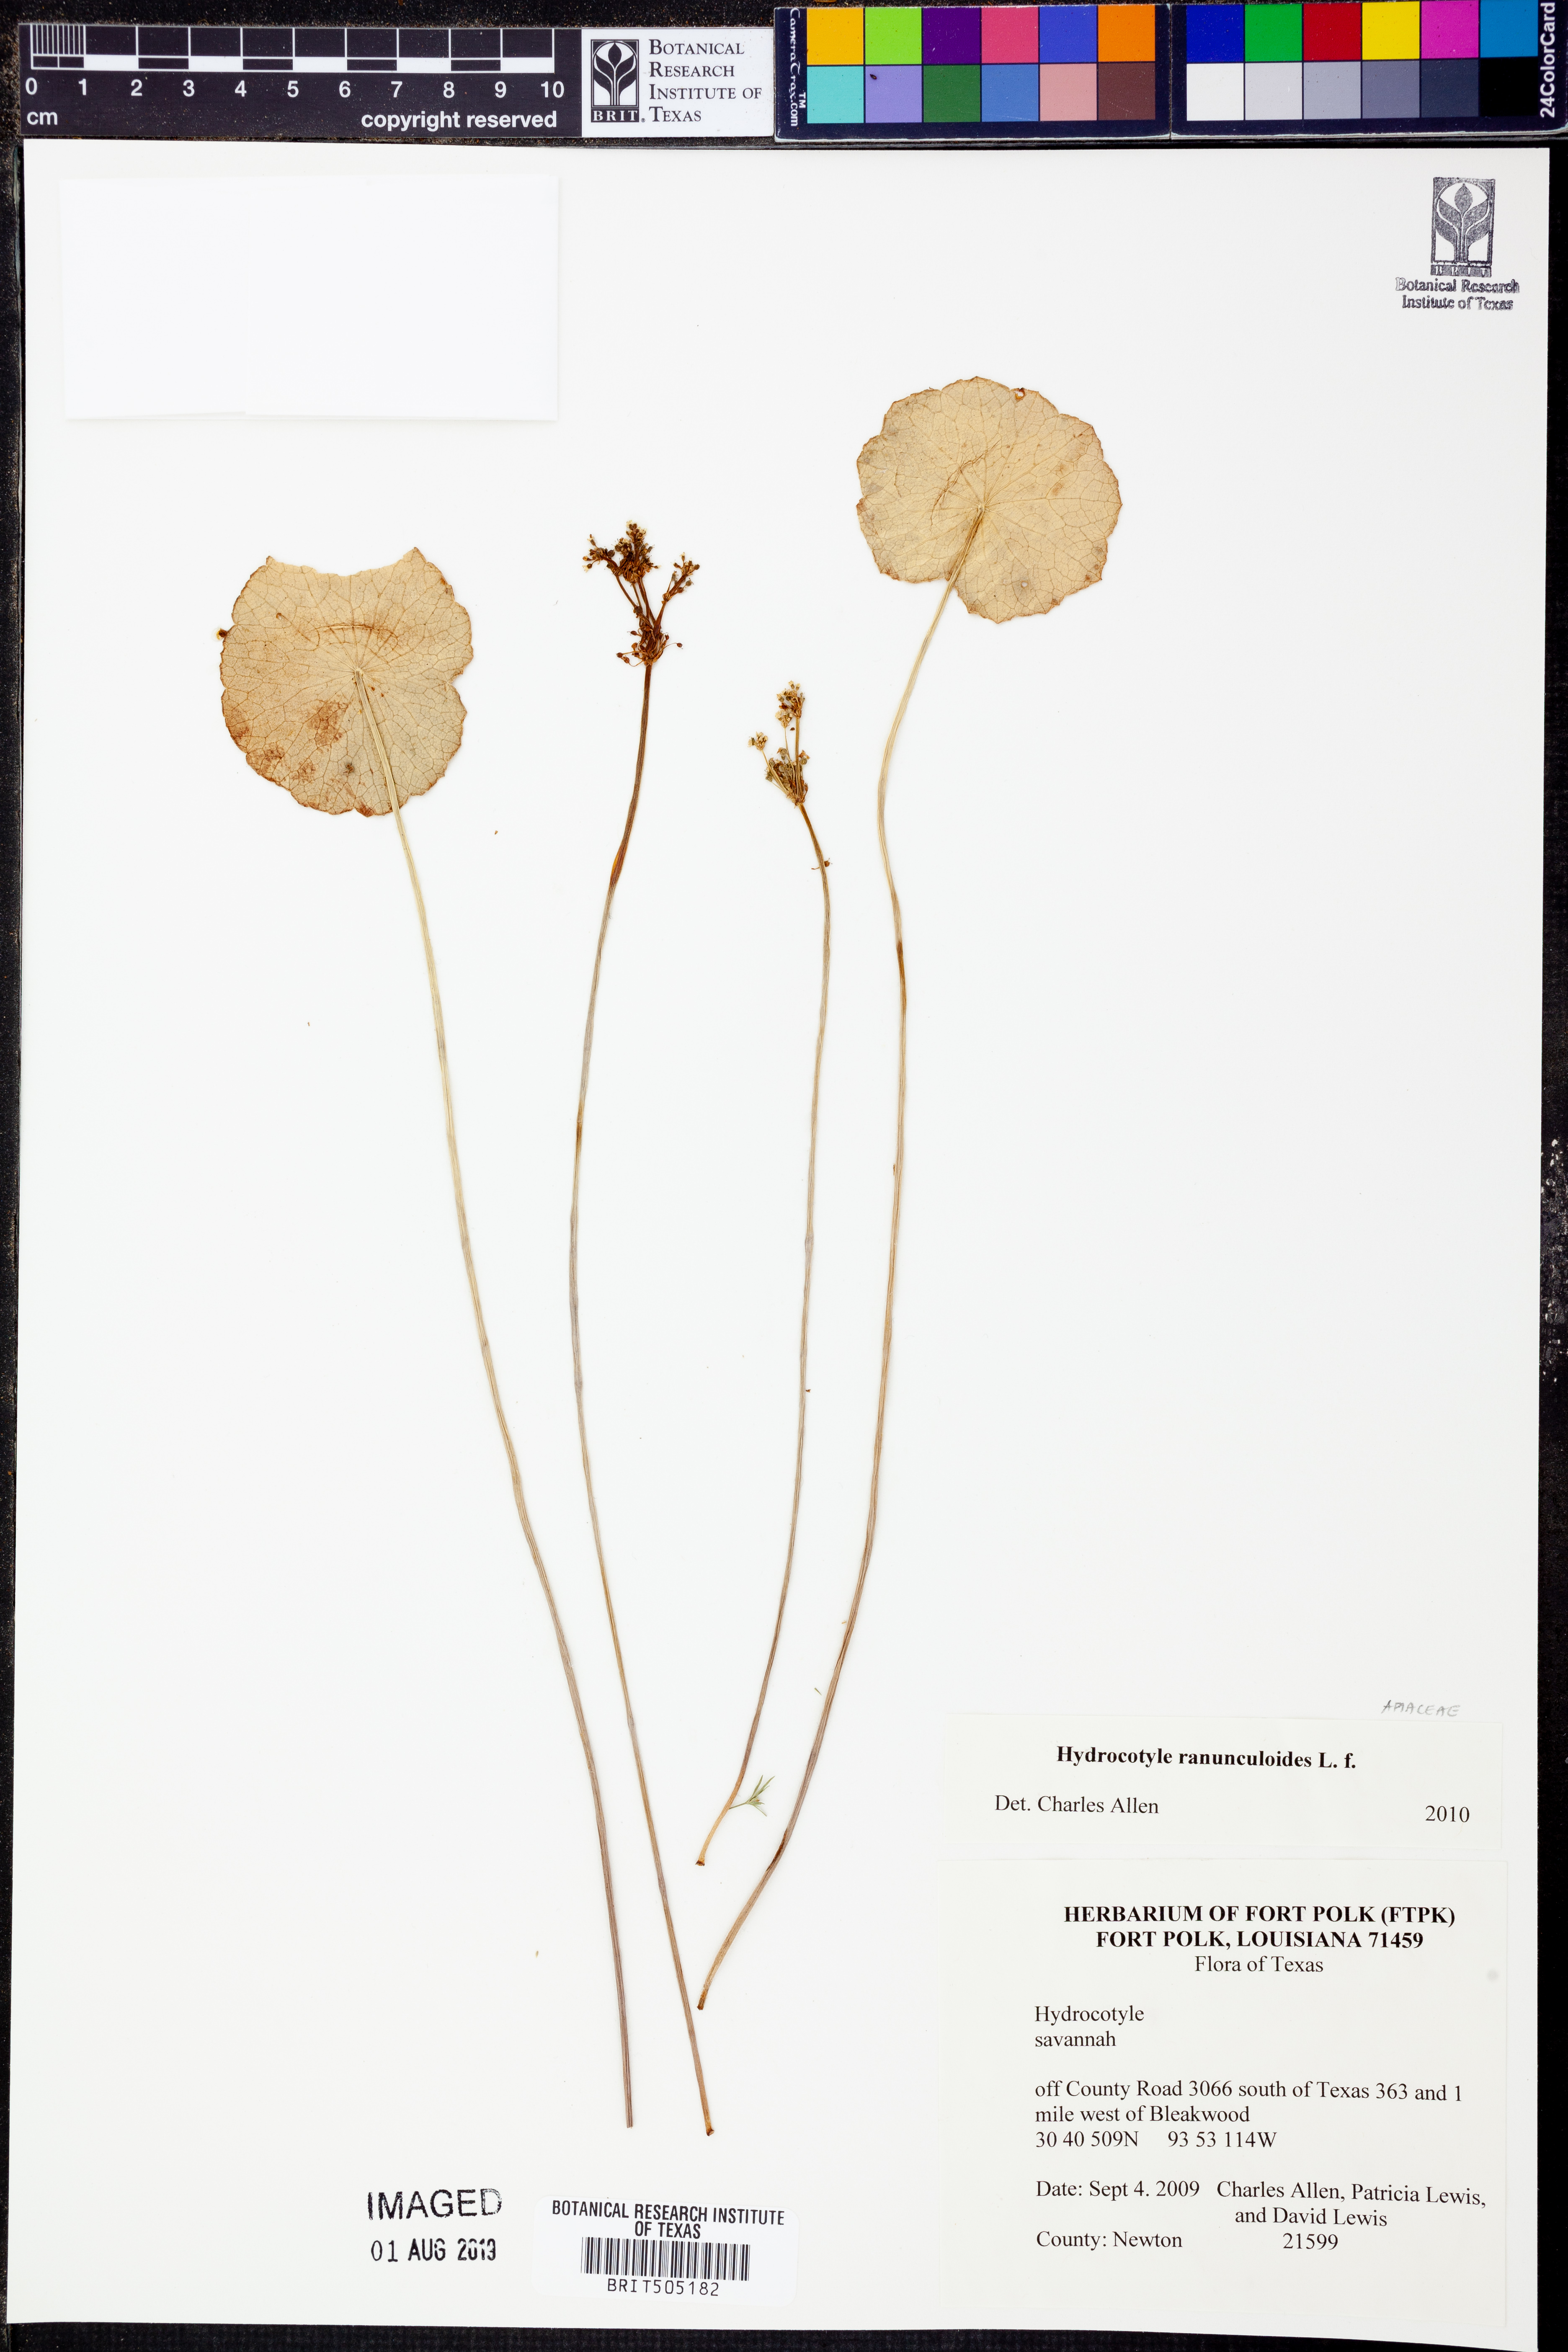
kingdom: Plantae
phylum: Tracheophyta
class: Magnoliopsida
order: Apiales
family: Araliaceae
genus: Hydrocotyle
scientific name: Hydrocotyle ranunculoides
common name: Floating pennywort
